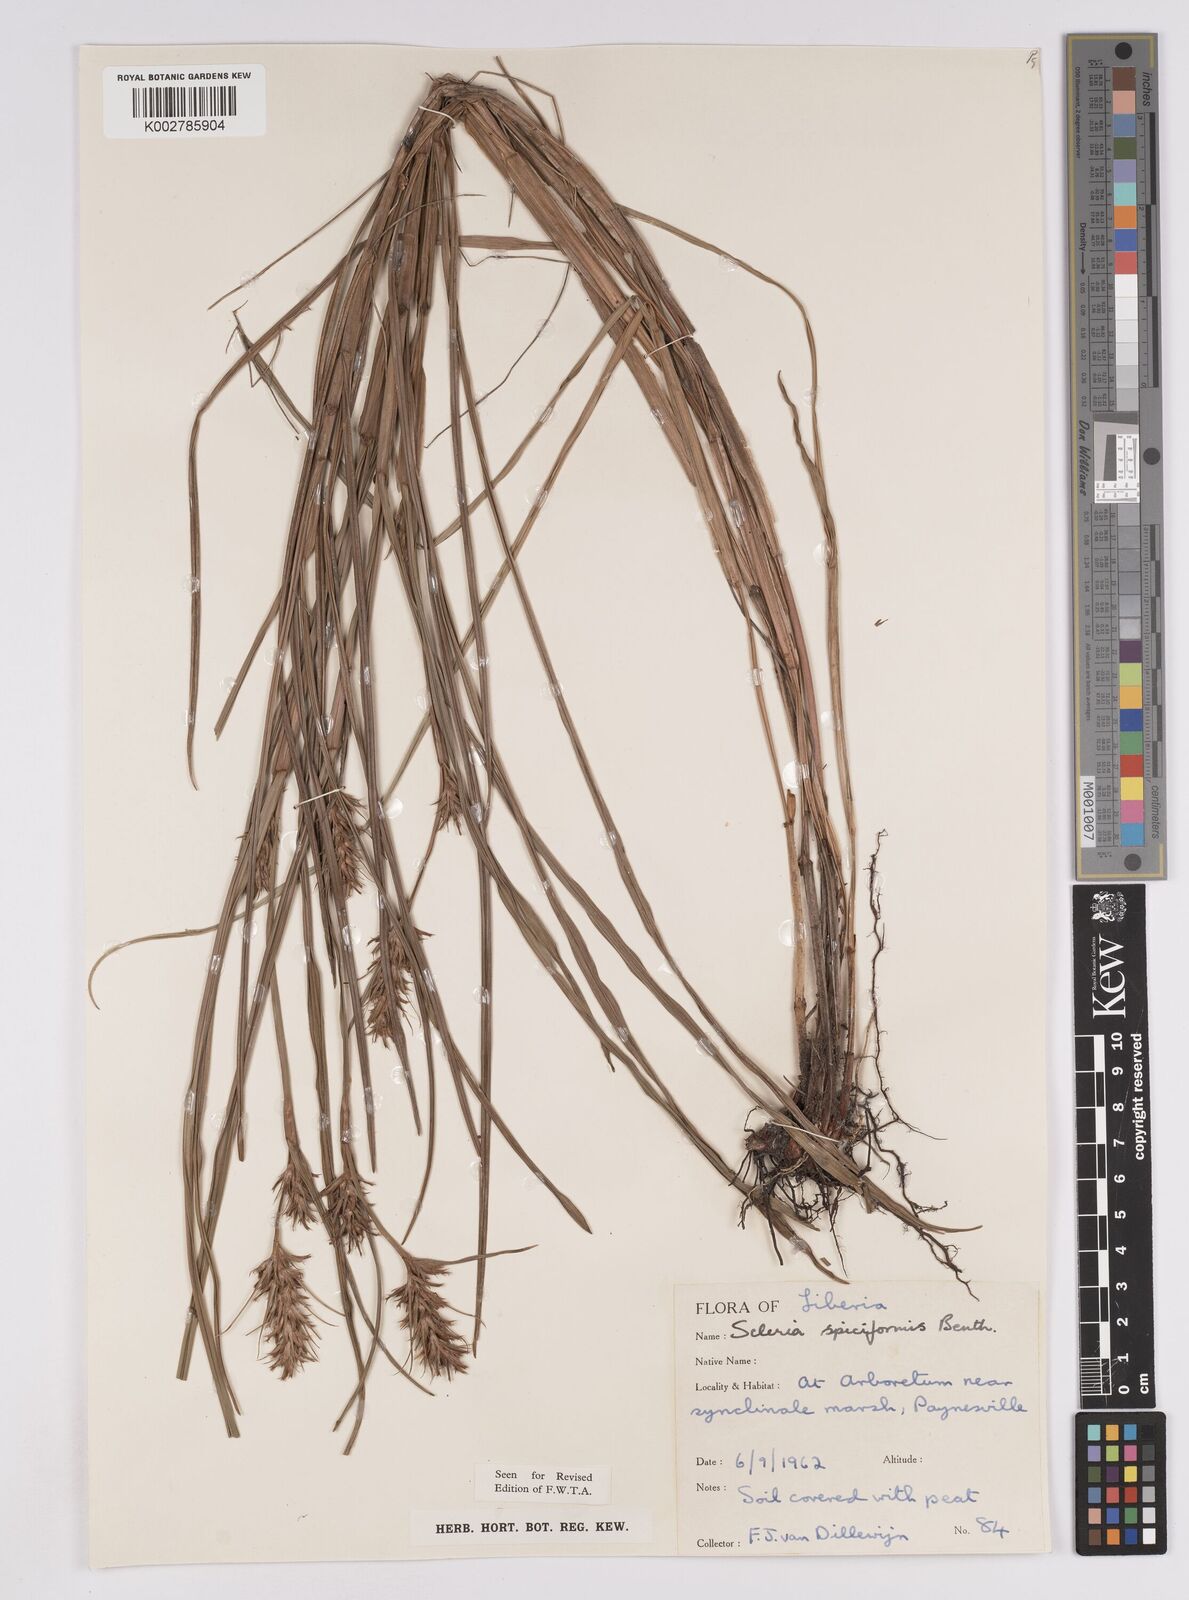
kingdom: Plantae
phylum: Tracheophyta
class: Liliopsida
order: Poales
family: Cyperaceae
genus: Scleria
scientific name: Scleria spiciformis
